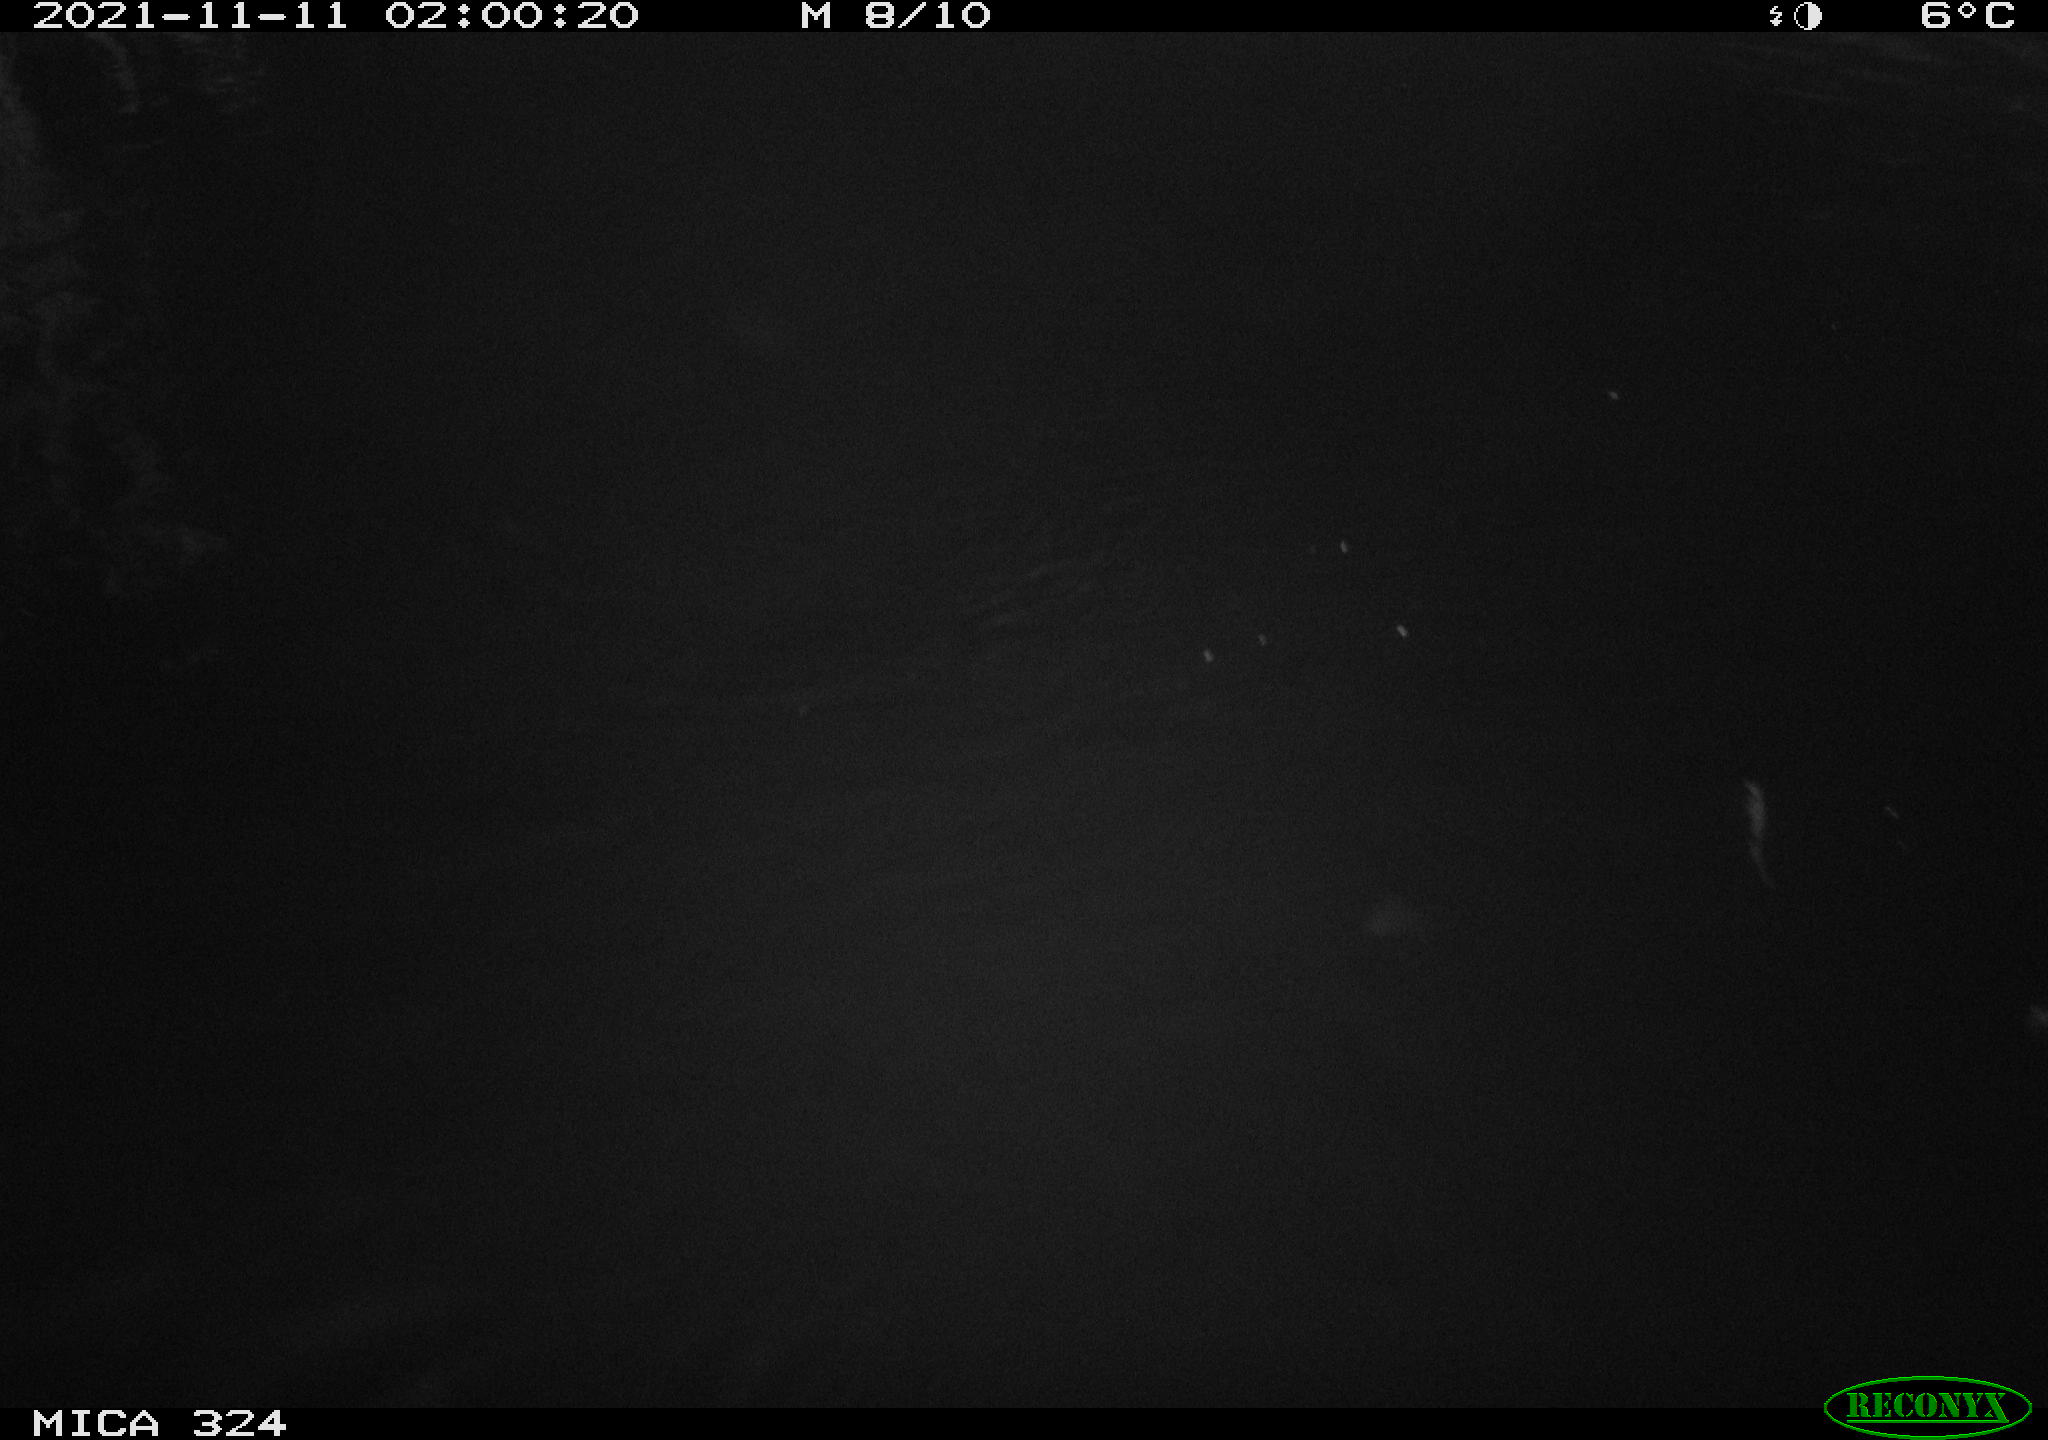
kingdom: Animalia
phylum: Chordata
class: Mammalia
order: Rodentia
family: Cricetidae
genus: Ondatra
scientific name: Ondatra zibethicus
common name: Muskrat
